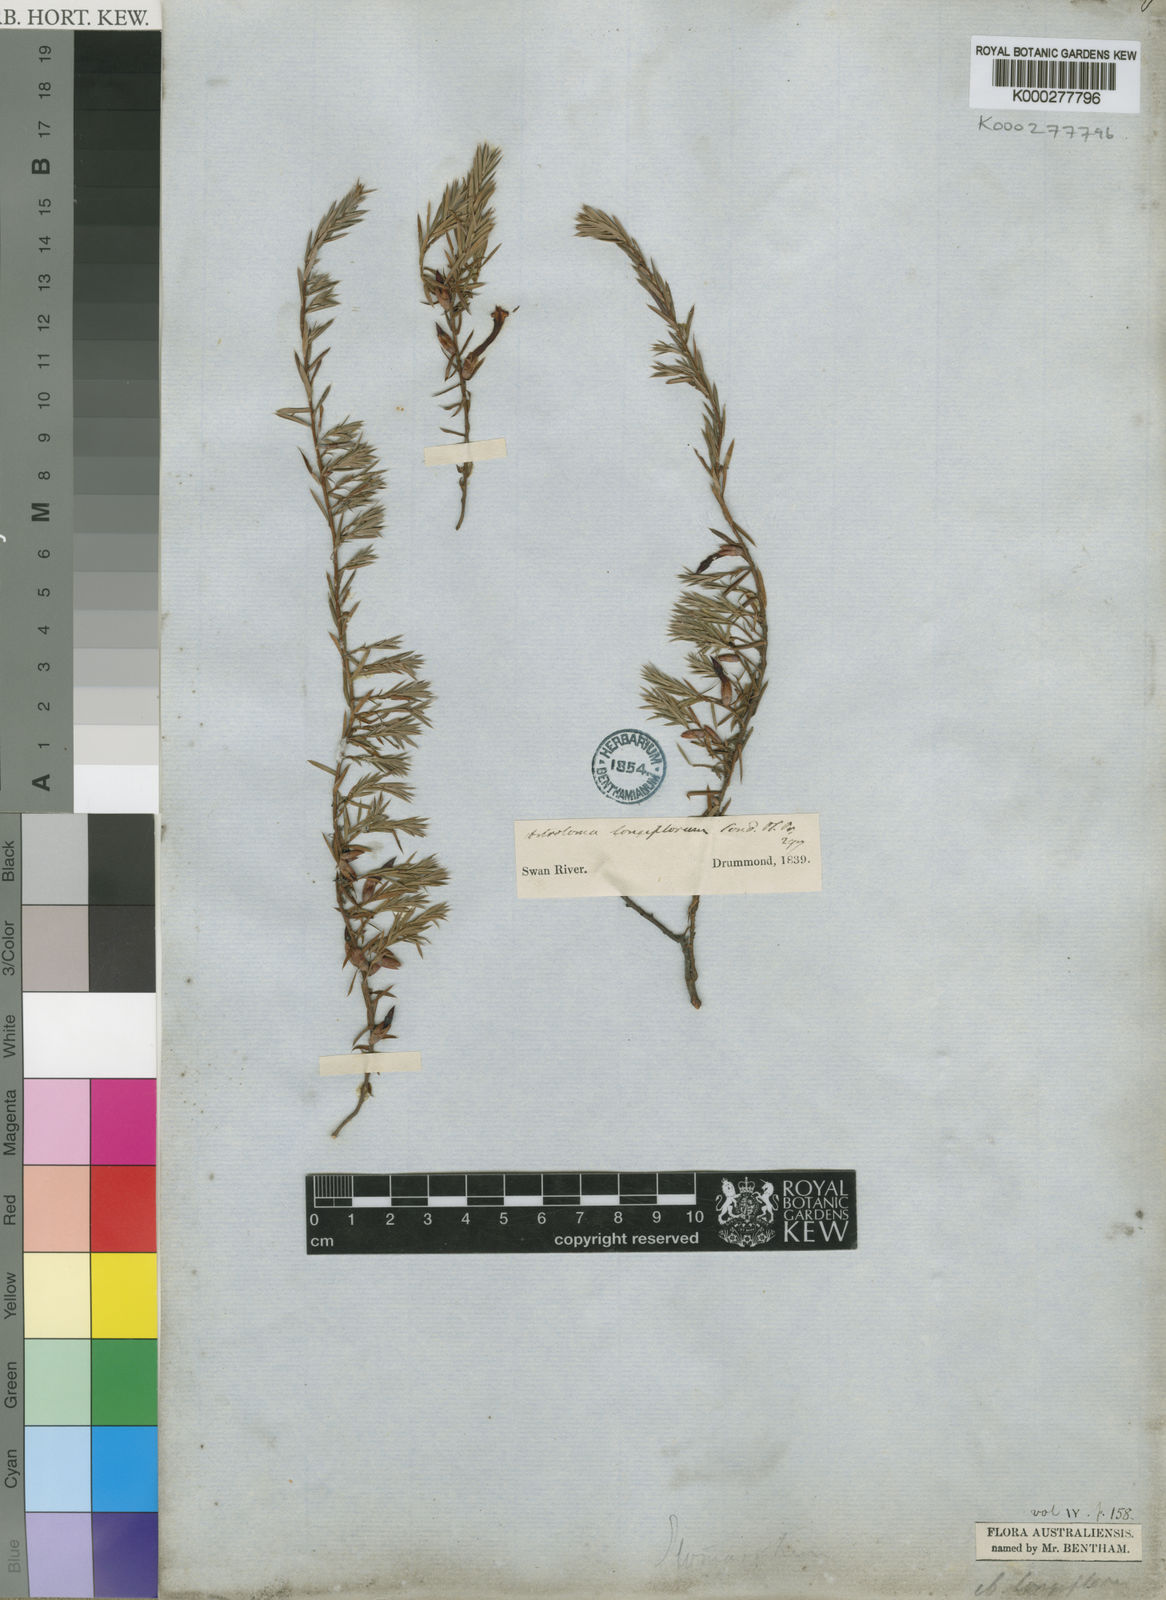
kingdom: Plantae
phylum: Tracheophyta
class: Magnoliopsida
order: Ericales
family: Ericaceae
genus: Styphelia
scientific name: Styphelia discolor
